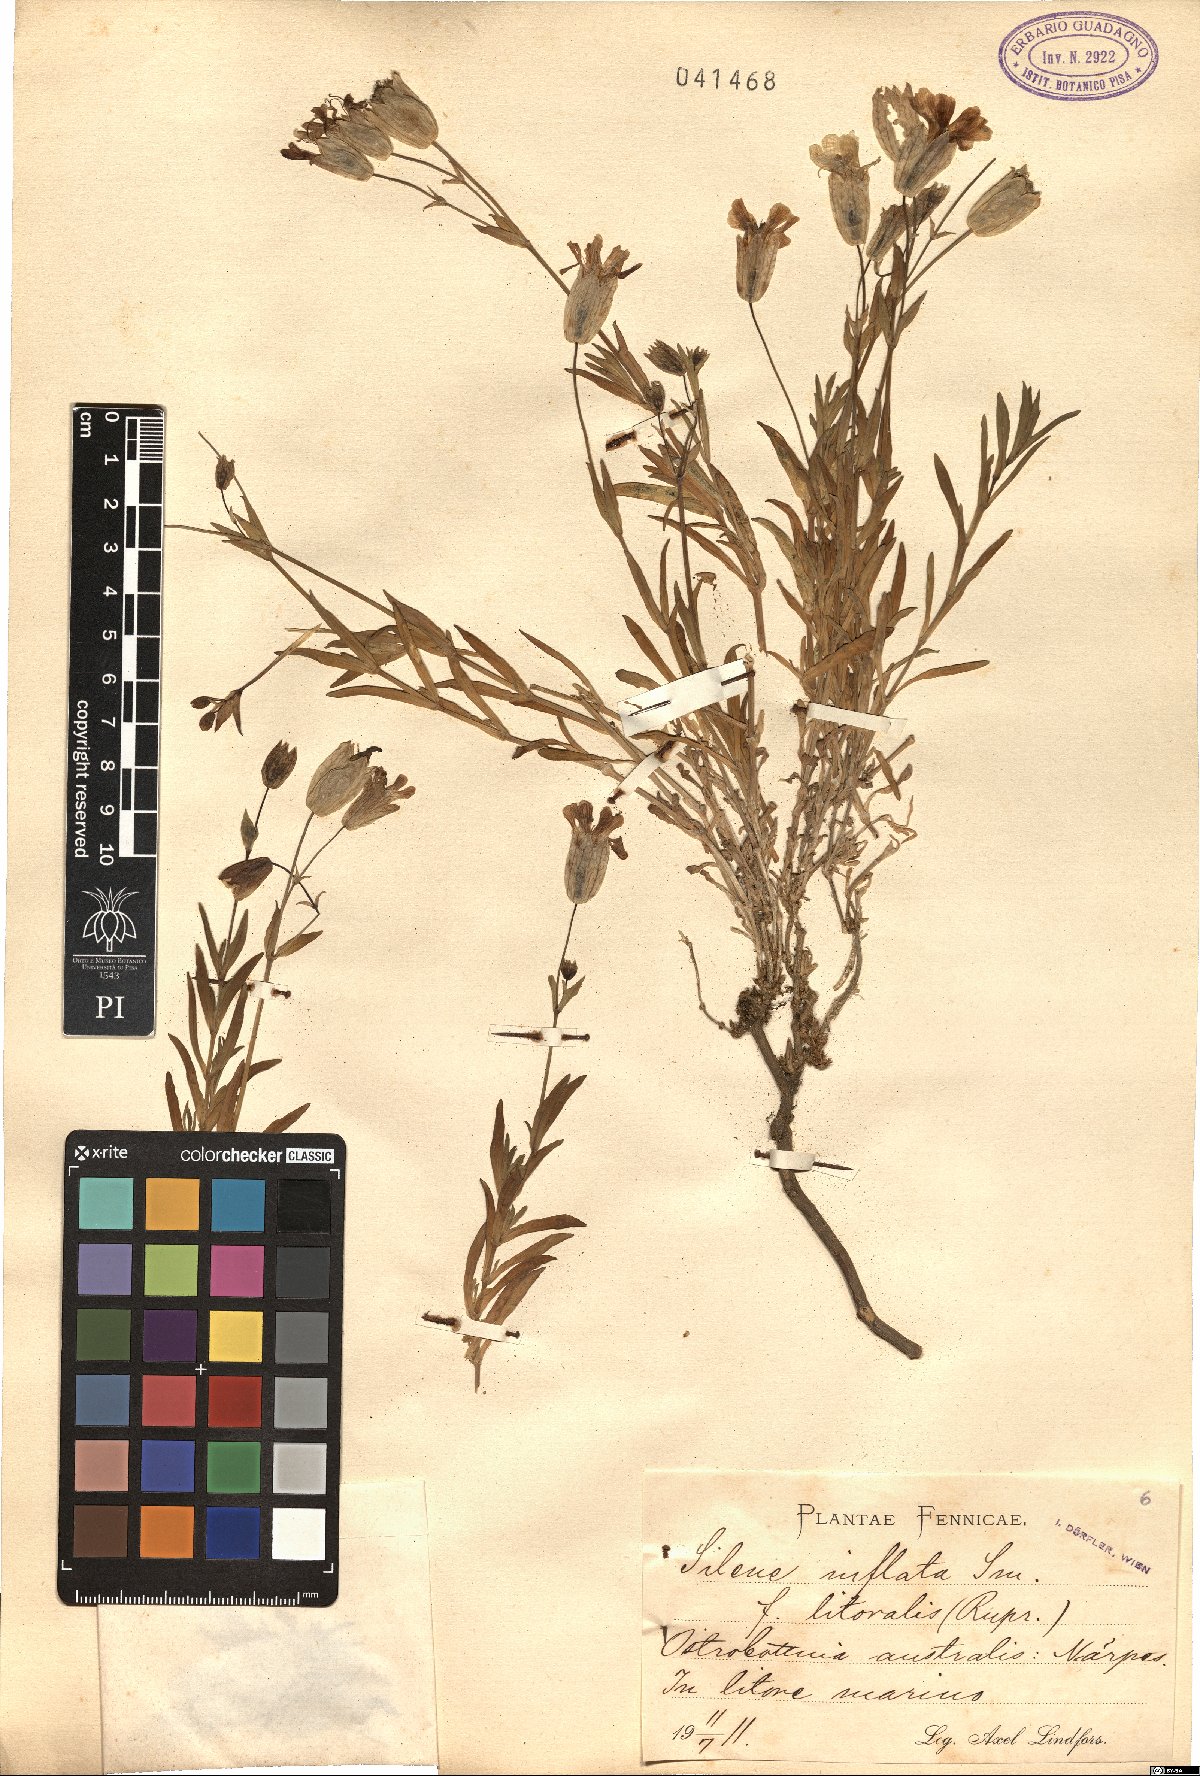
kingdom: Plantae
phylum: Tracheophyta
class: Magnoliopsida
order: Caryophyllales
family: Caryophyllaceae
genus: Silene
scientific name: Silene vulgaris
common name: Bladder campion
